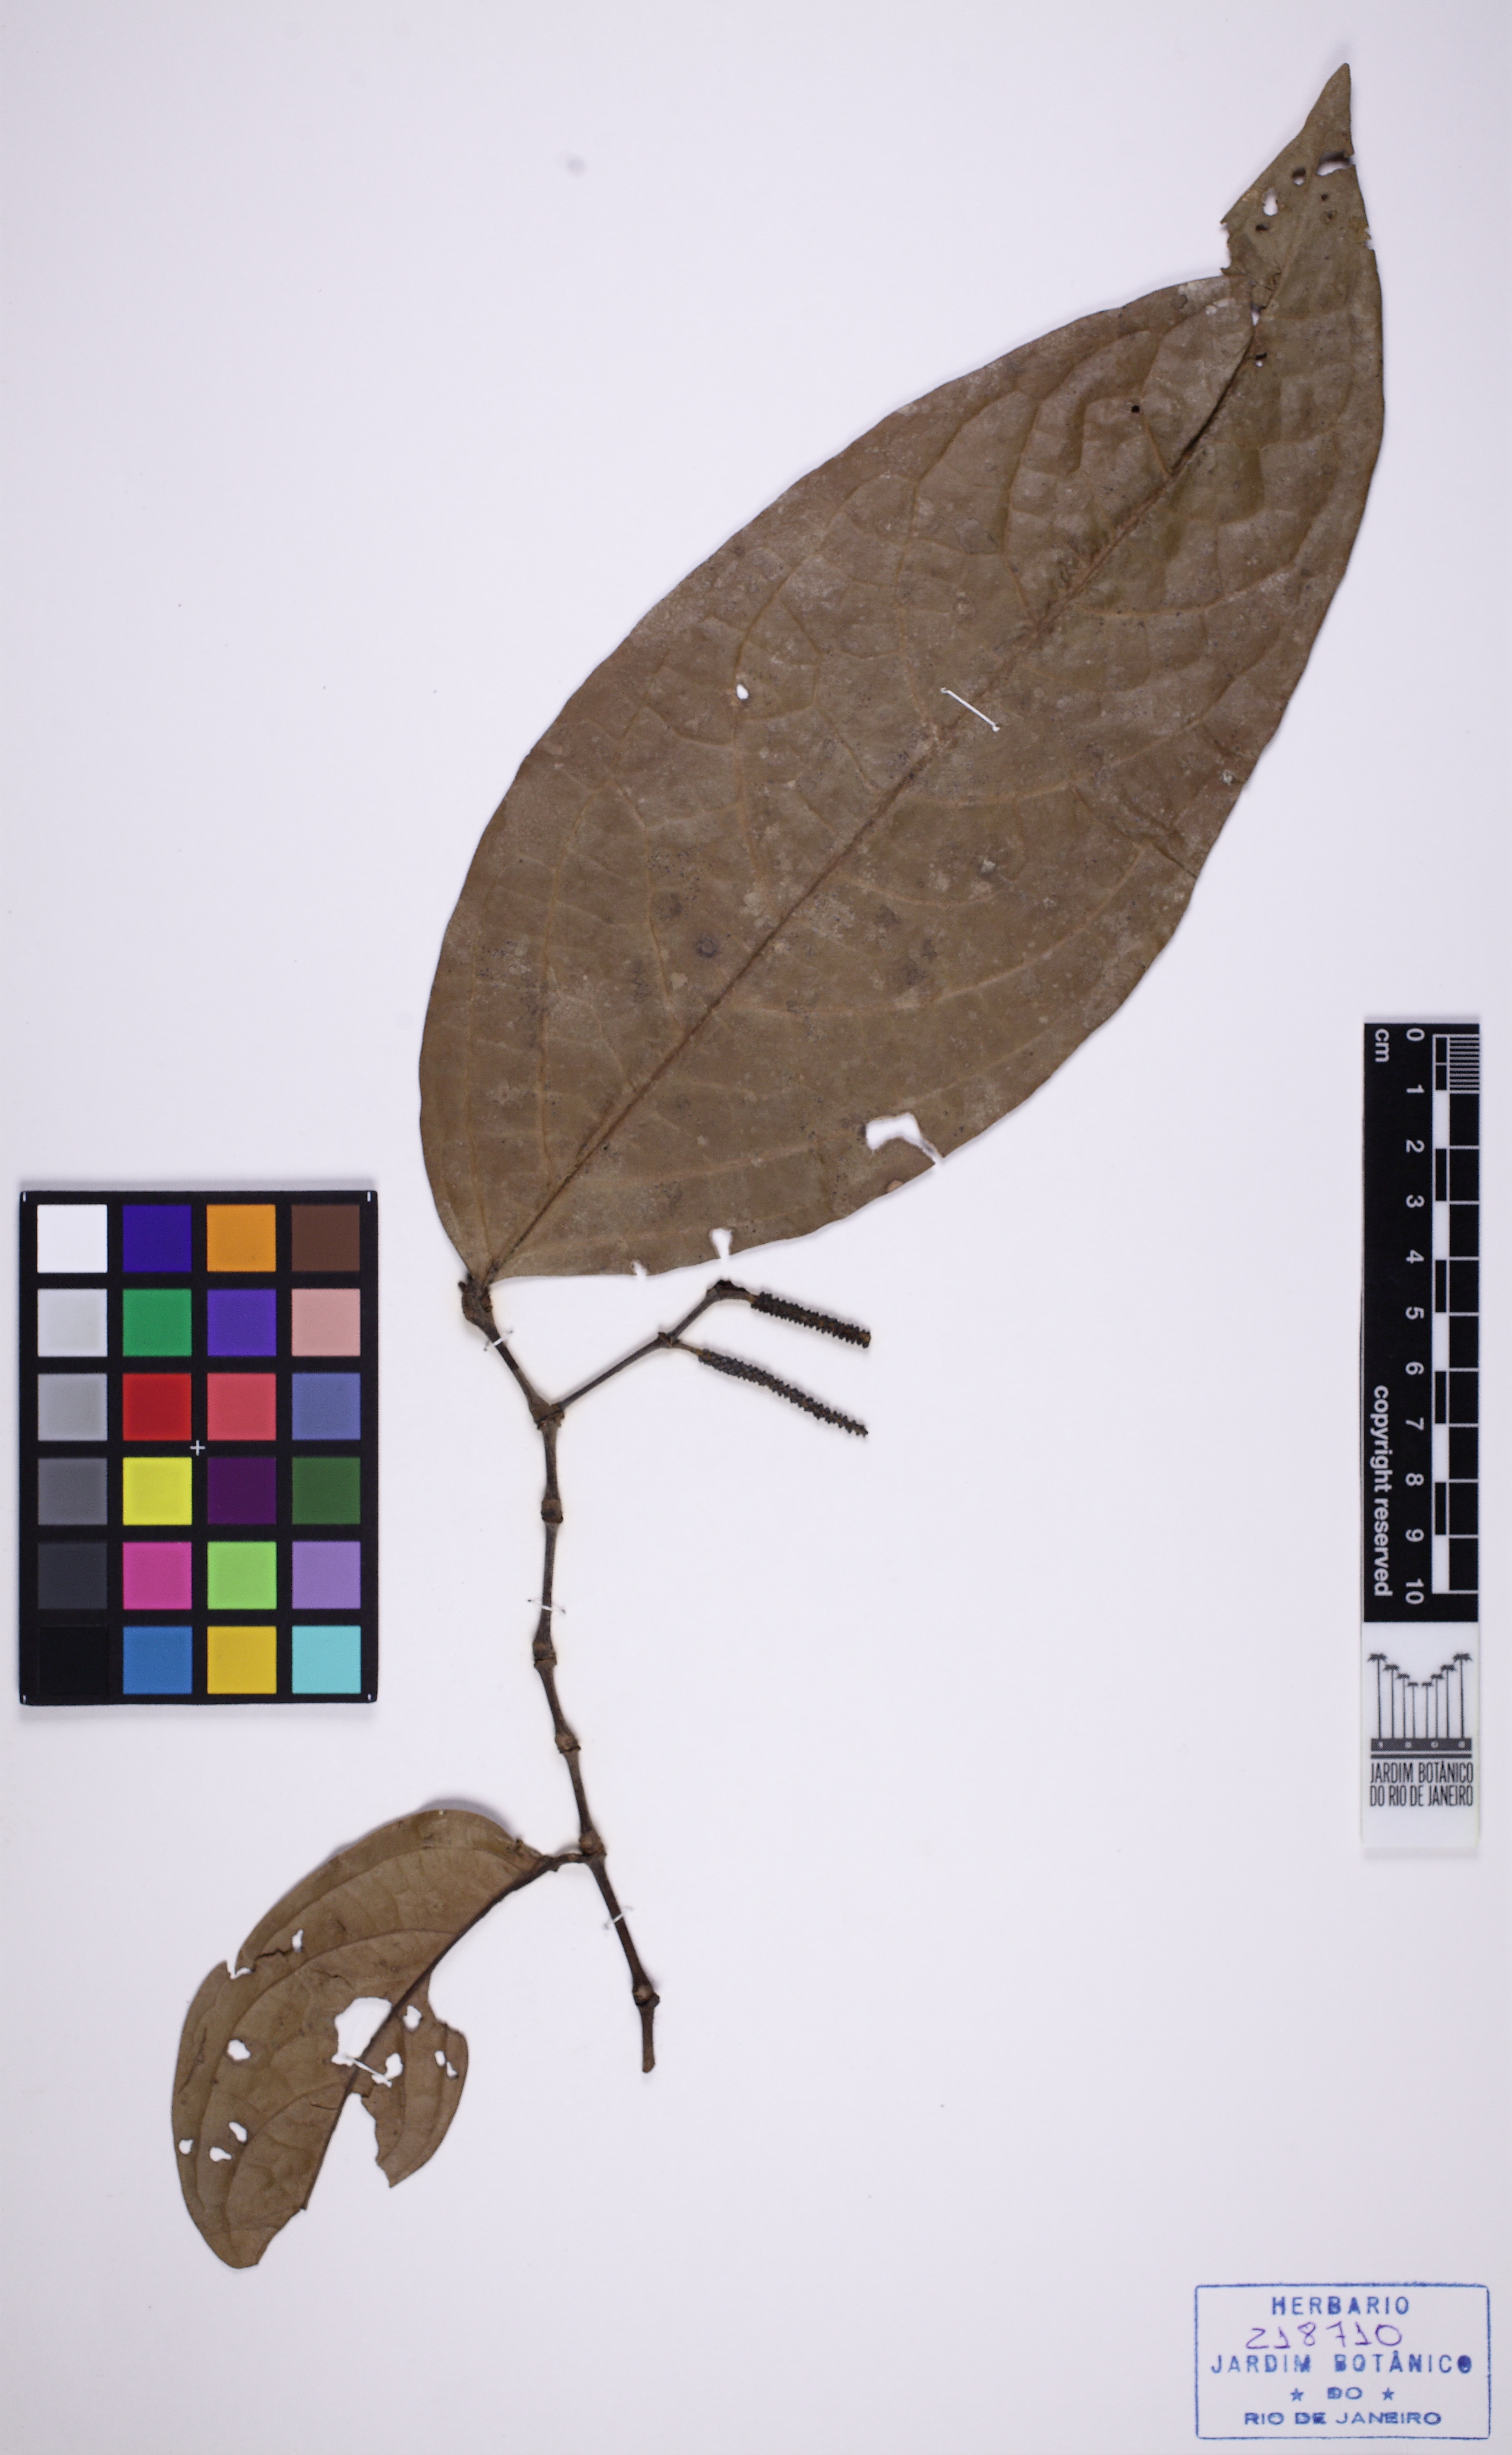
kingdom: Plantae
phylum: Tracheophyta
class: Magnoliopsida
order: Piperales
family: Piperaceae
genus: Piper
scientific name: Piper bartlingianum
